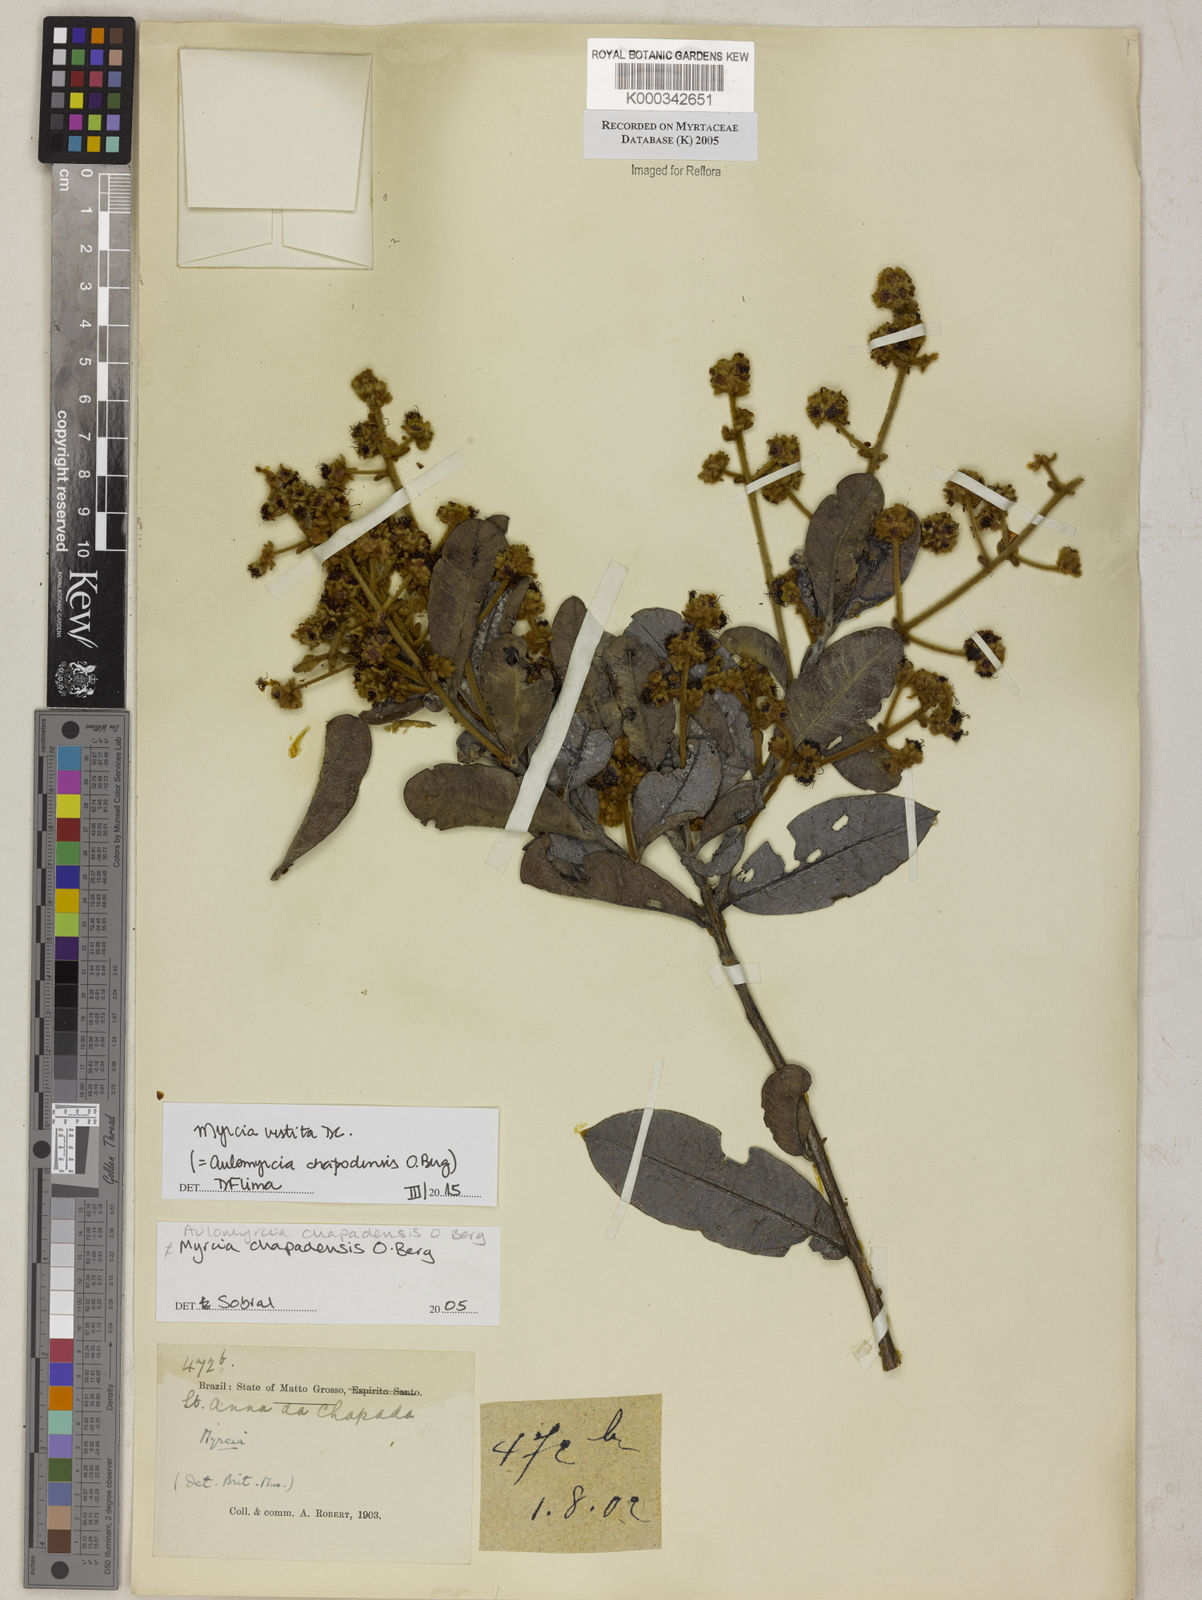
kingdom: Plantae
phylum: Tracheophyta
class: Magnoliopsida
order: Myrtales
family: Myrtaceae
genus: Myrcia
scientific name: Myrcia chapadensis
